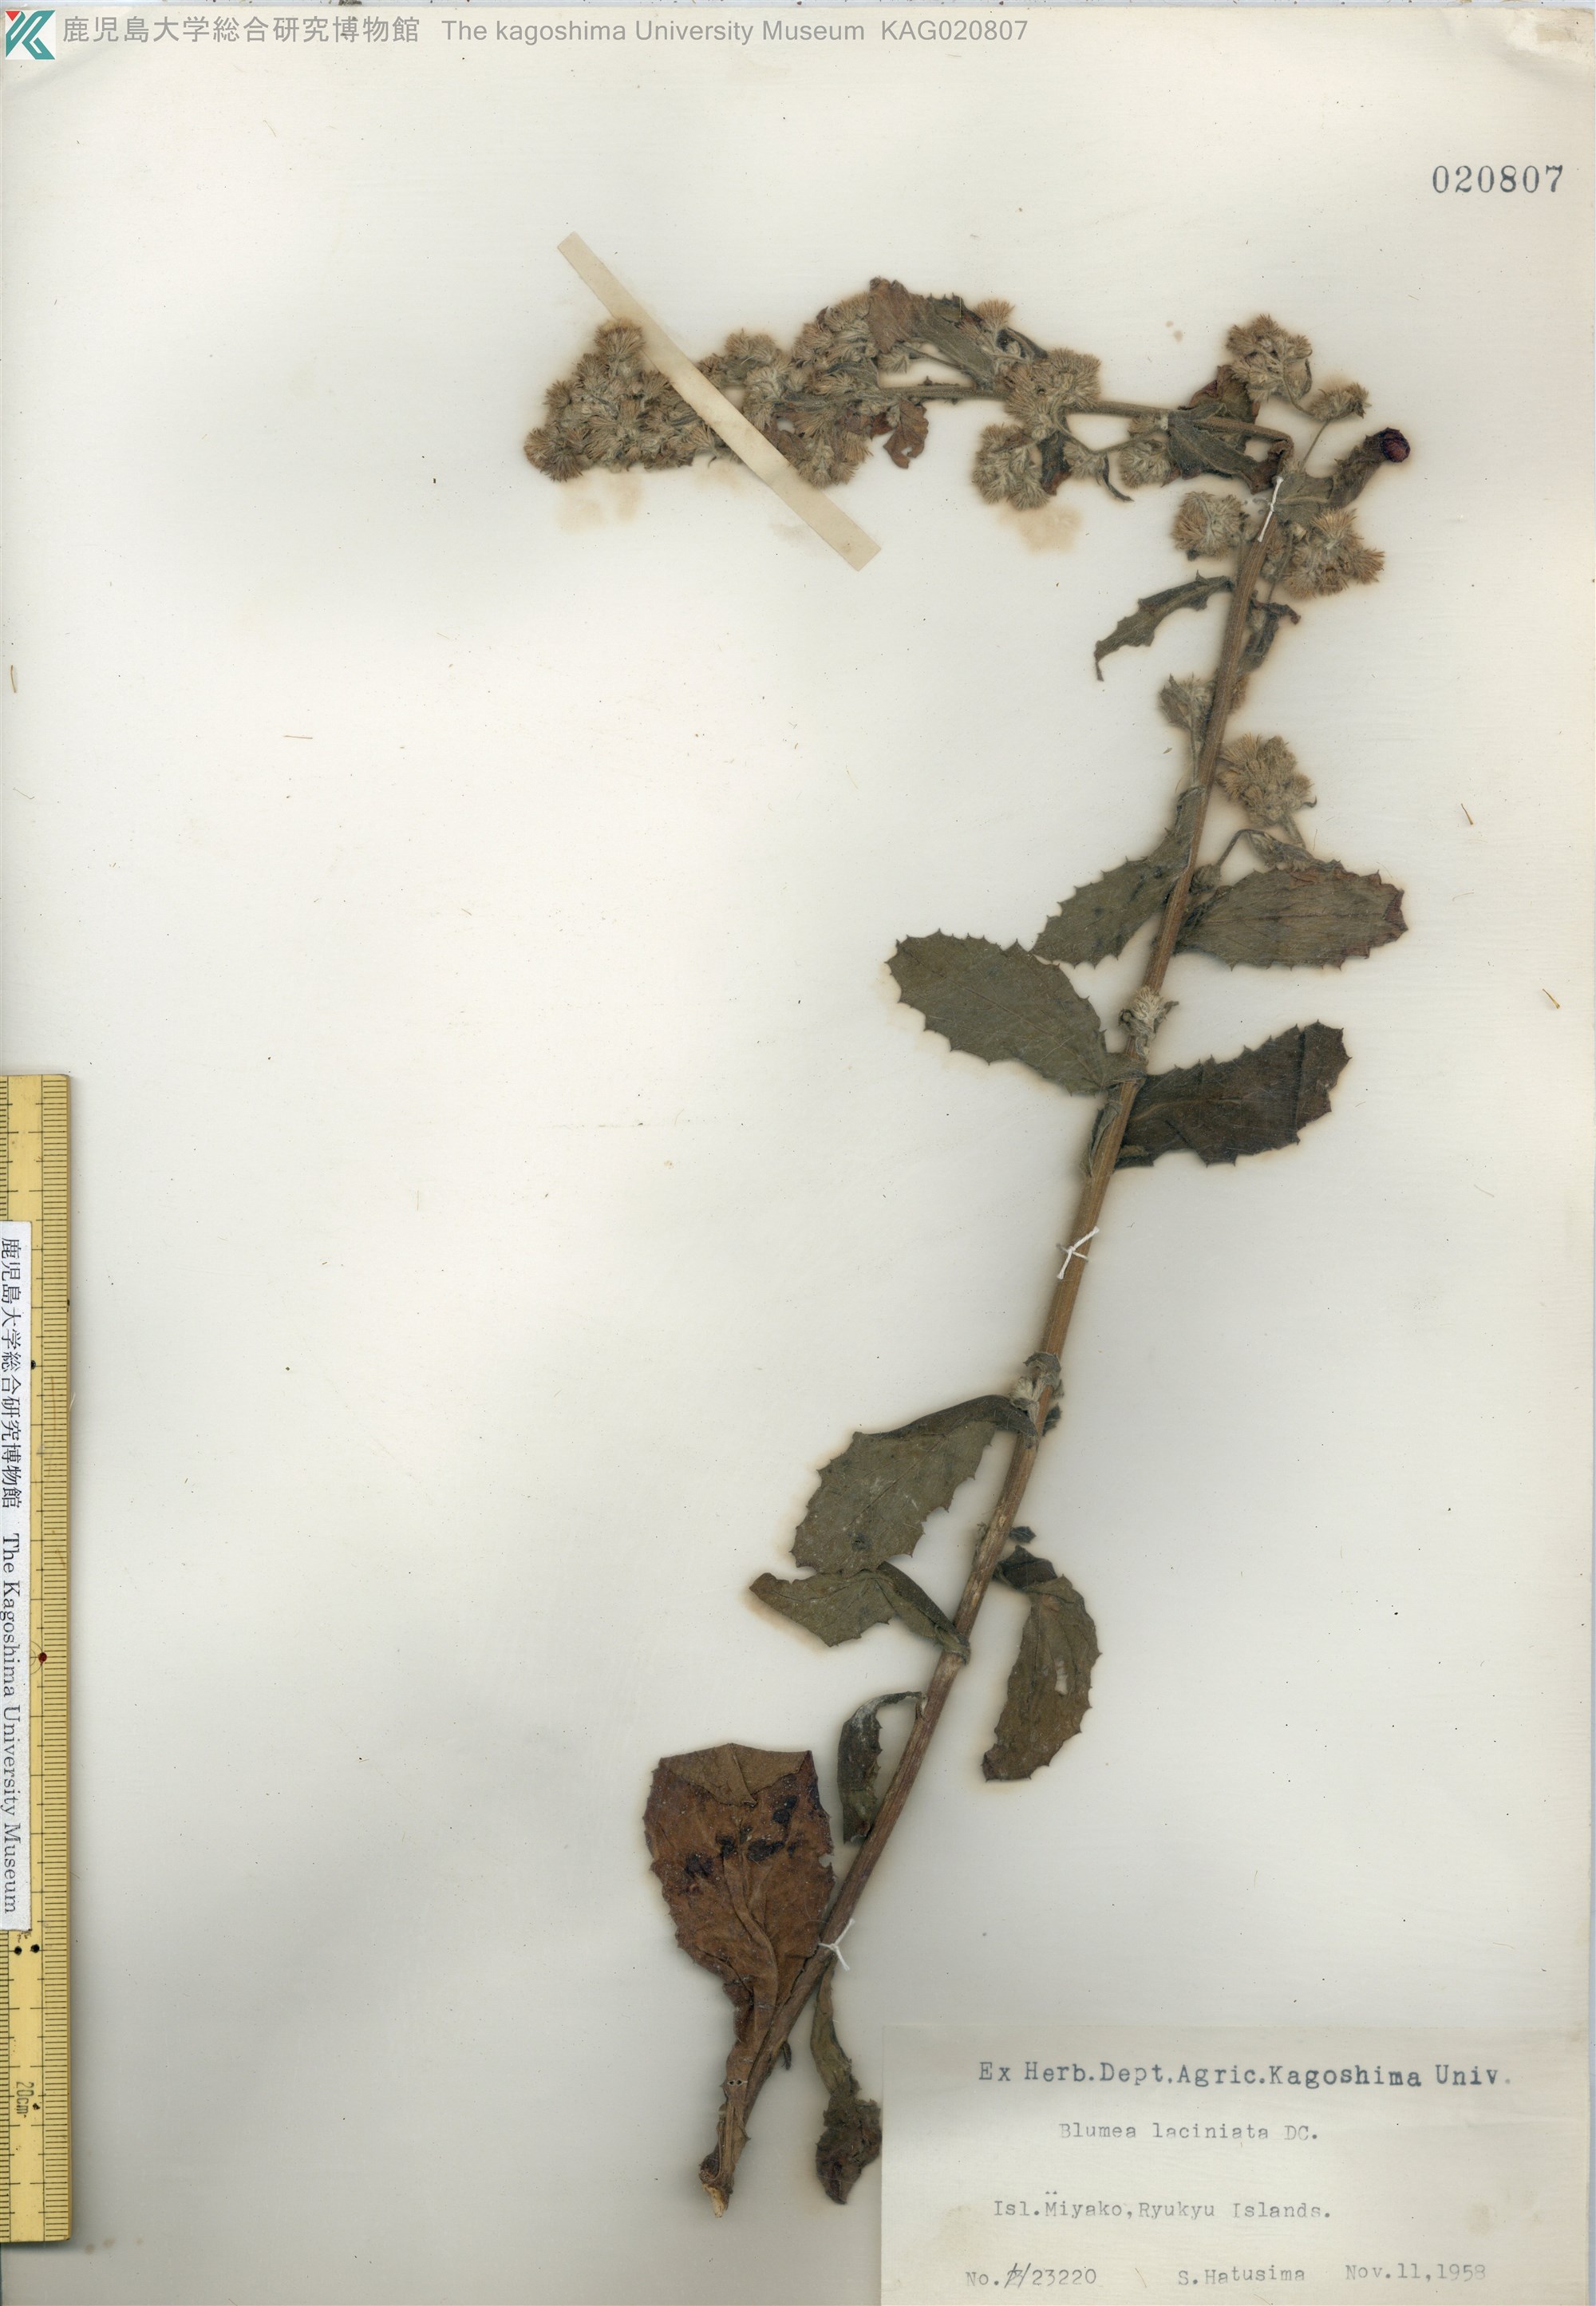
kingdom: Plantae
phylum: Tracheophyta
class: Magnoliopsida
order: Asterales
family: Asteraceae
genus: Blumea
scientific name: Blumea lacera
